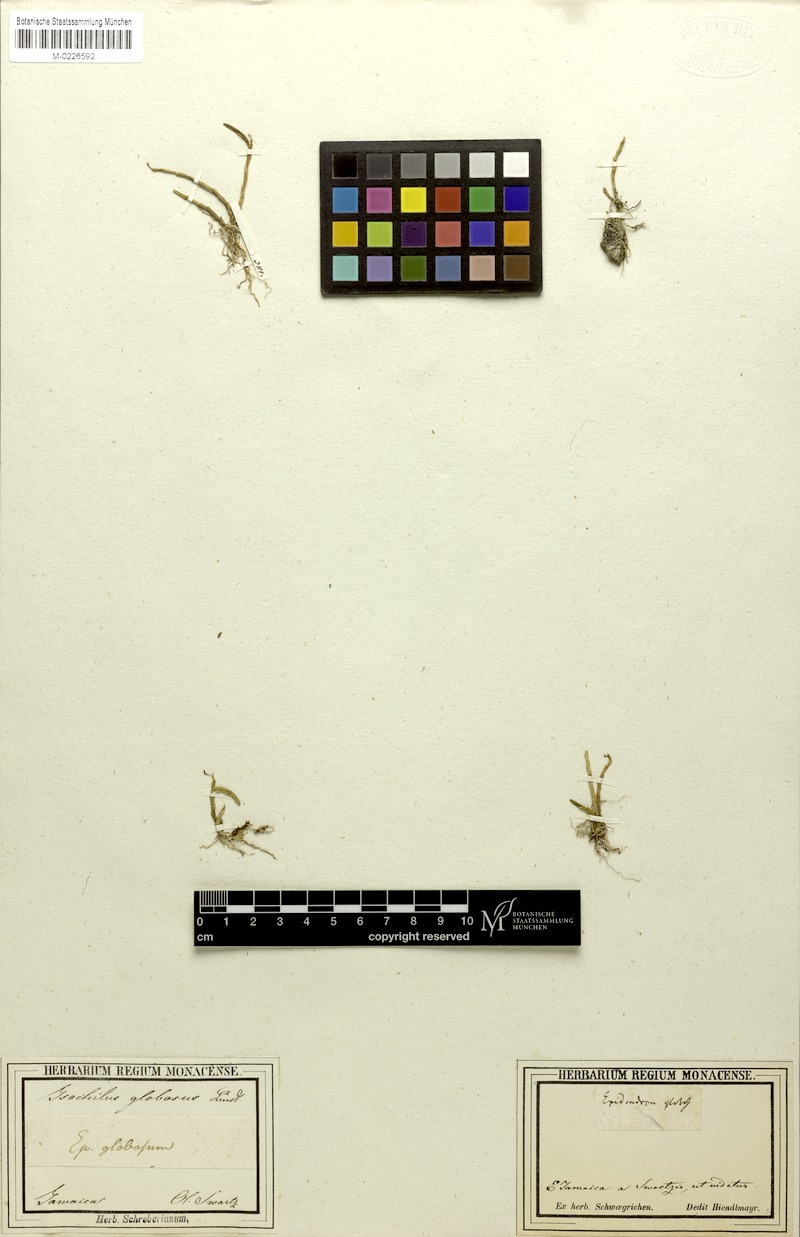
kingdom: Plantae
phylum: Tracheophyta
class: Liliopsida
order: Asparagales
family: Orchidaceae
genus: Jacquiniella
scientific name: Jacquiniella globosa
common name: Redblotch tufted orchid
